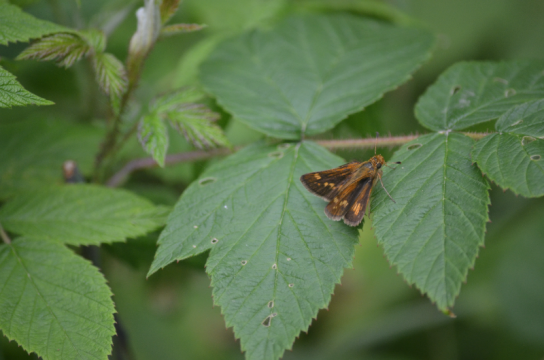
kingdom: Animalia
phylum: Arthropoda
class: Insecta
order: Lepidoptera
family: Hesperiidae
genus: Polites
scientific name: Polites themistocles
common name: Tawny-edged Skipper
